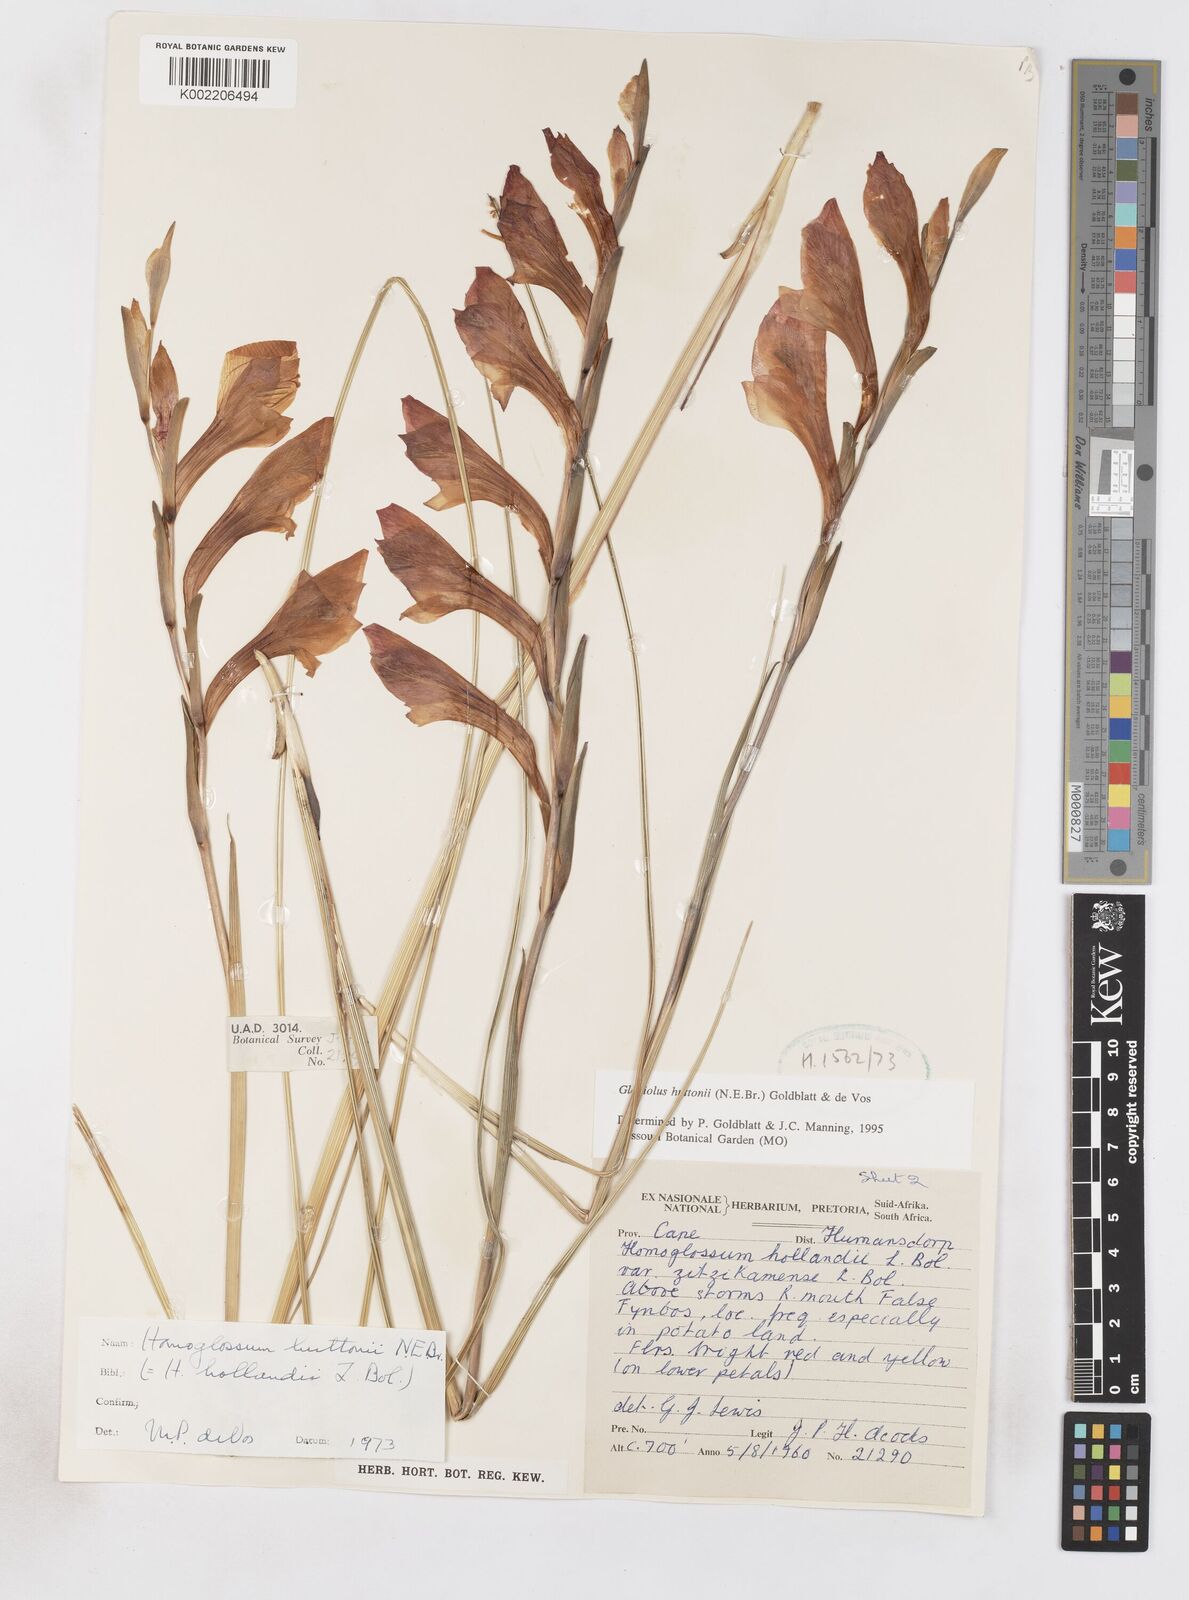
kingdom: Plantae
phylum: Tracheophyta
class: Liliopsida
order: Asparagales
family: Iridaceae
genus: Gladiolus
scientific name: Gladiolus huttonii
